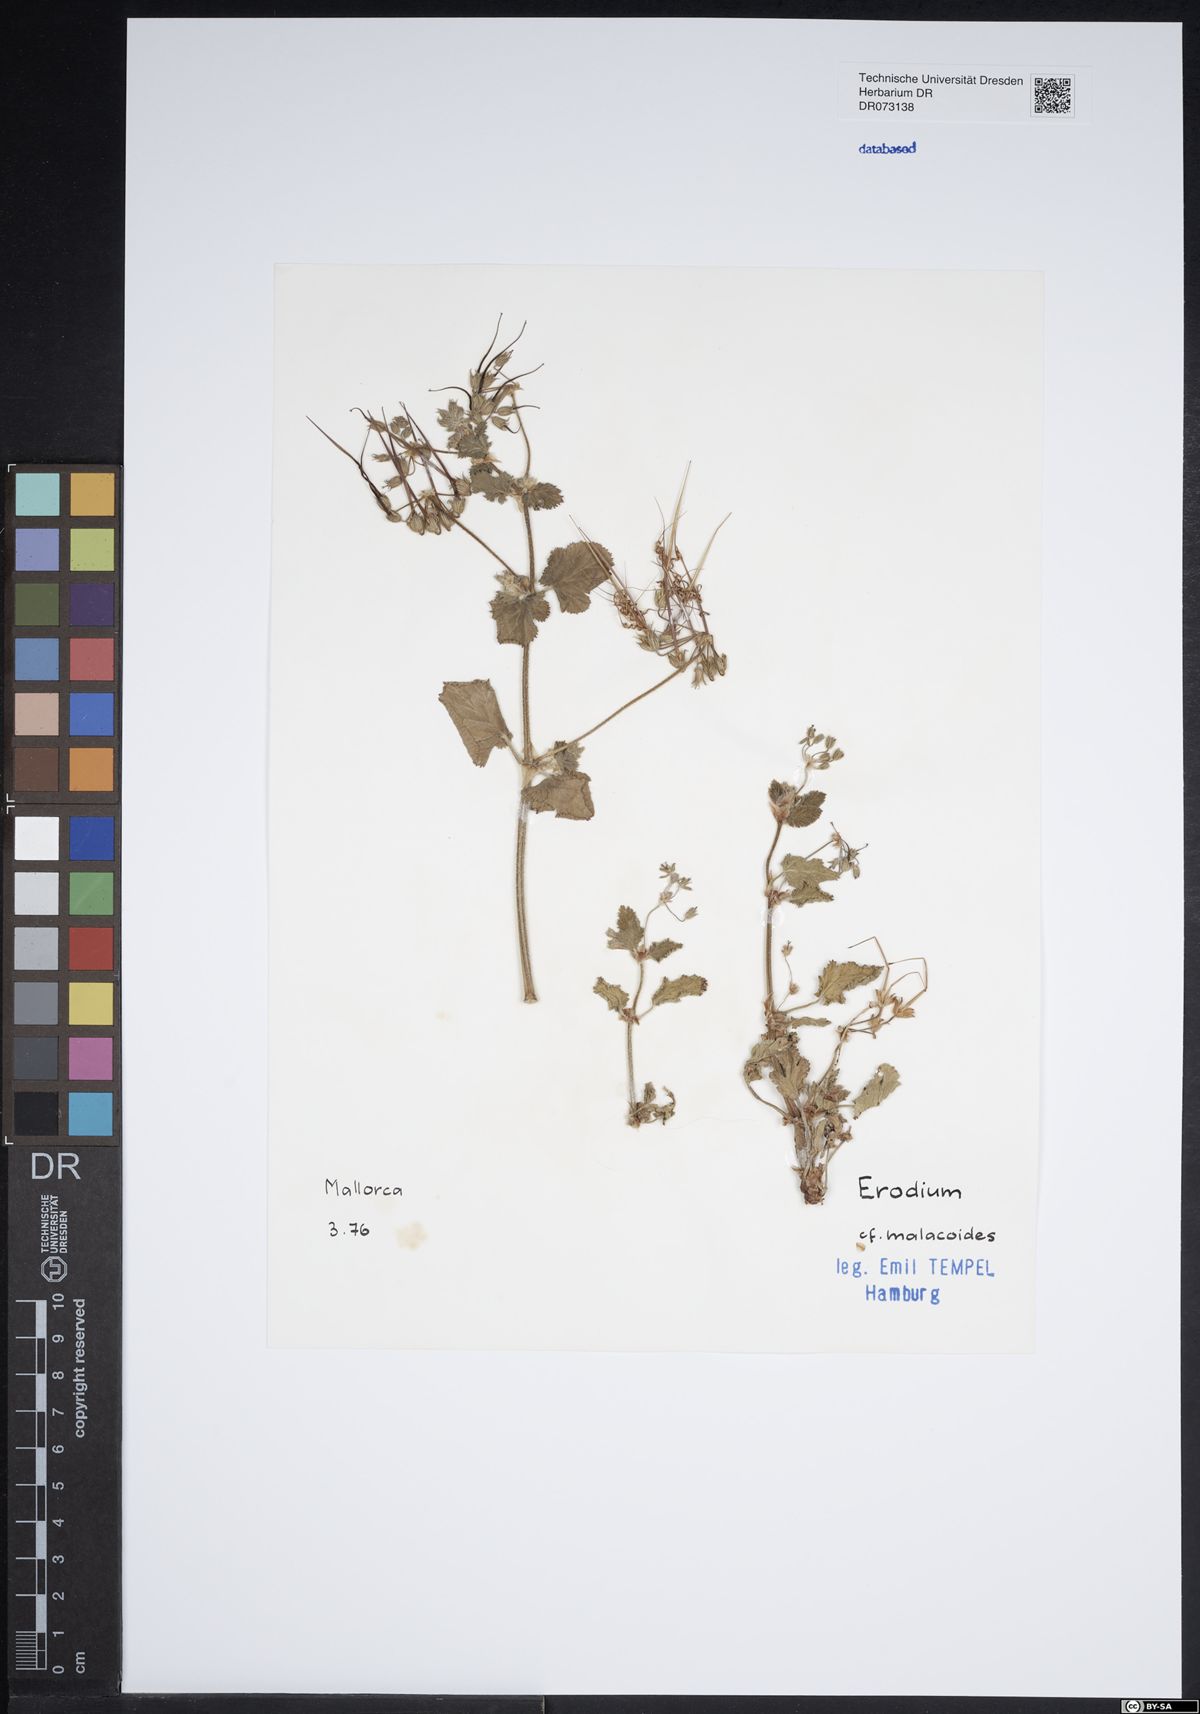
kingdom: Plantae
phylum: Tracheophyta
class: Magnoliopsida
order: Geraniales
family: Geraniaceae
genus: Erodium
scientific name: Erodium malacoides
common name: Soft stork's-bill
